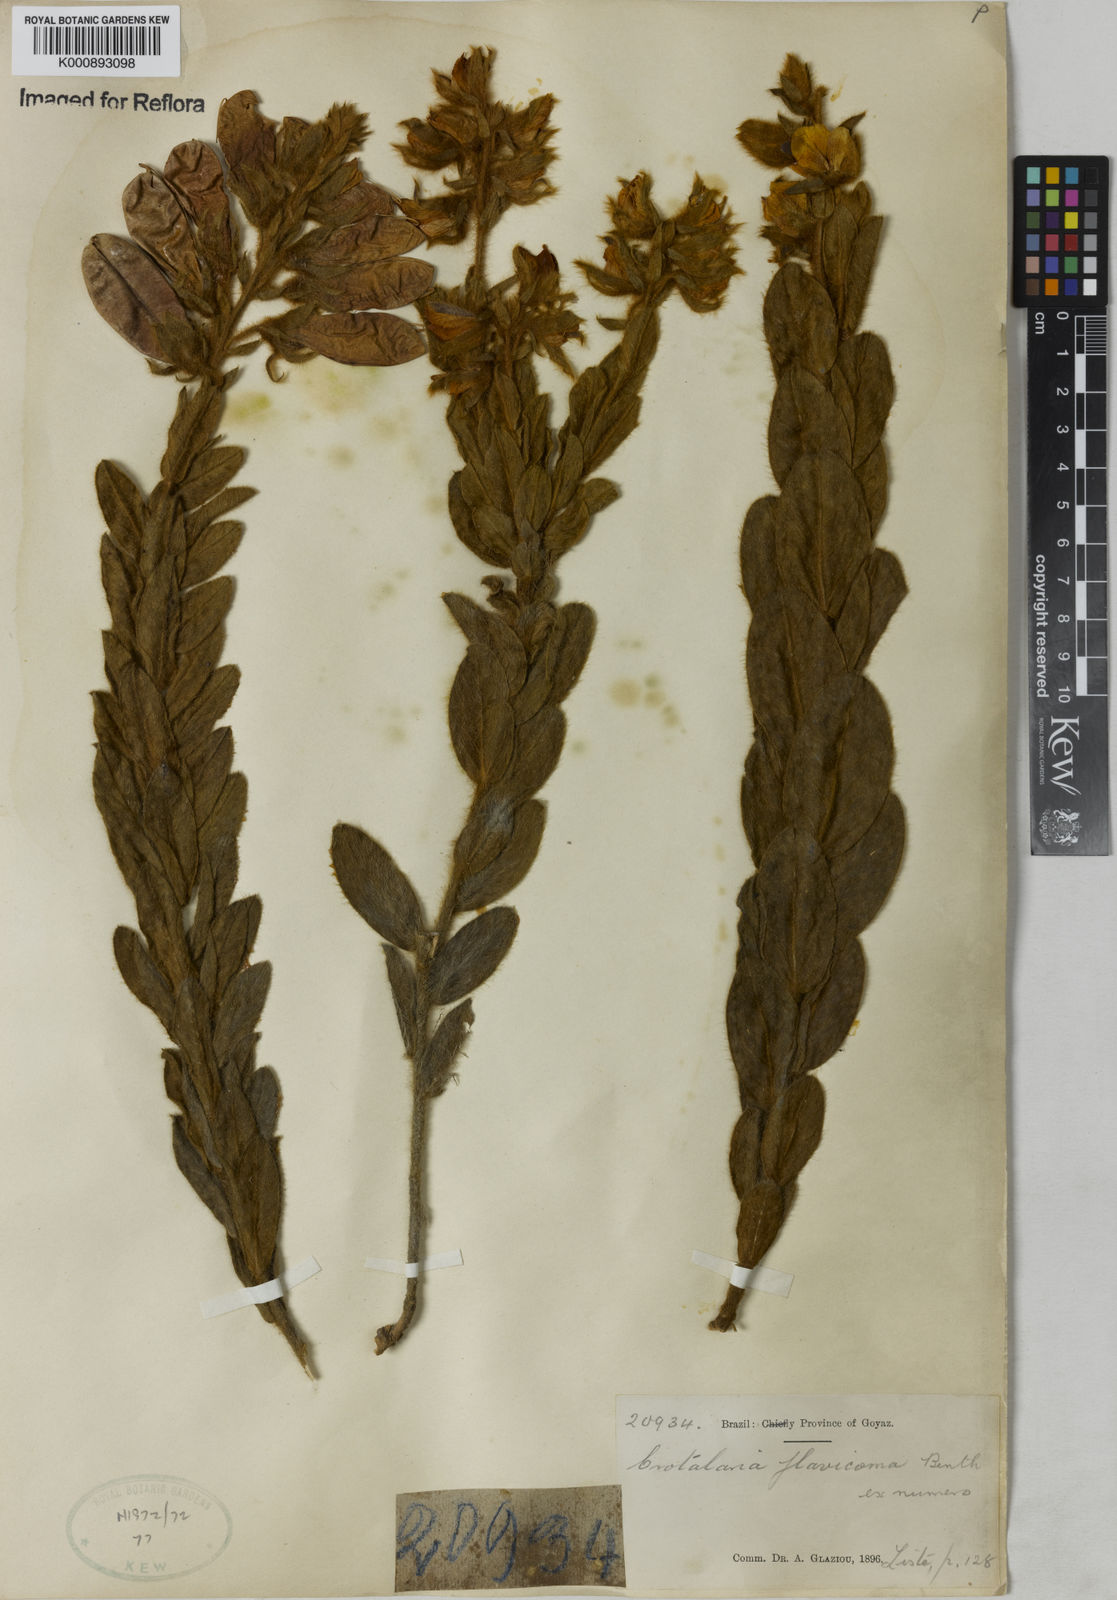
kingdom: Plantae
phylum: Tracheophyta
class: Magnoliopsida
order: Fabales
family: Fabaceae
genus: Crotalaria
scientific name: Crotalaria flavicoma
